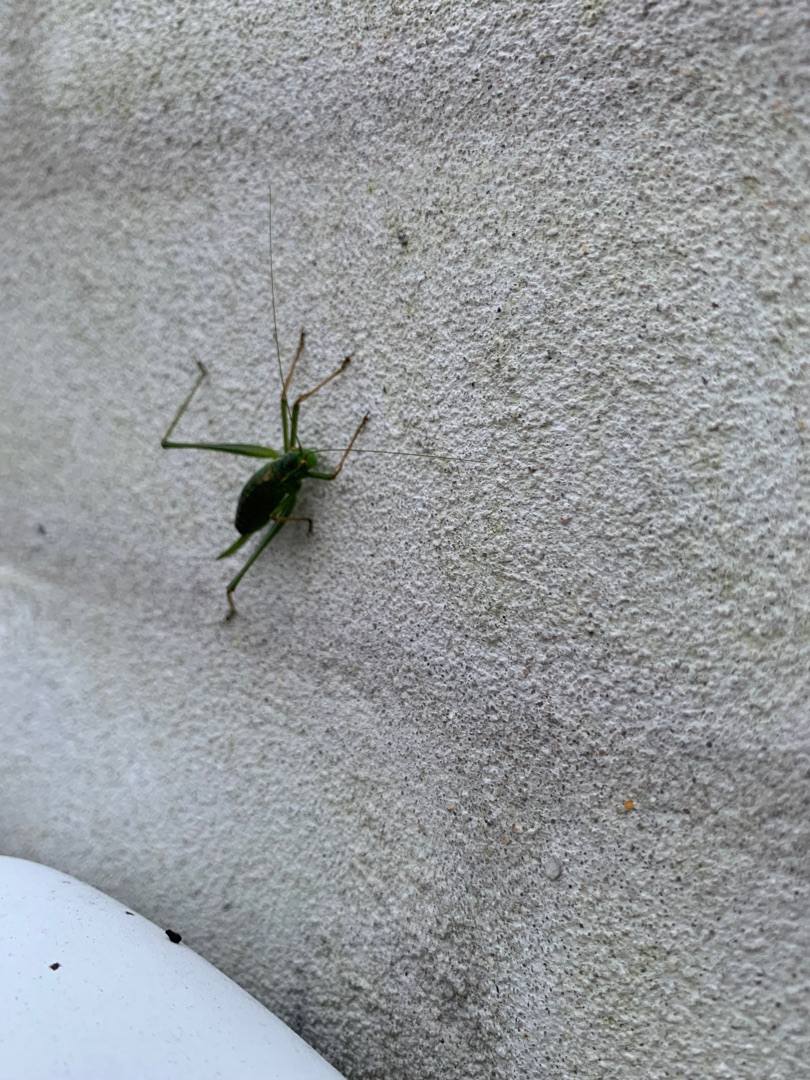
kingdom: Animalia
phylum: Arthropoda
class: Insecta
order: Orthoptera
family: Tettigoniidae
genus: Leptophyes
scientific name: Leptophyes punctatissima
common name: Krumknivgræshoppe
